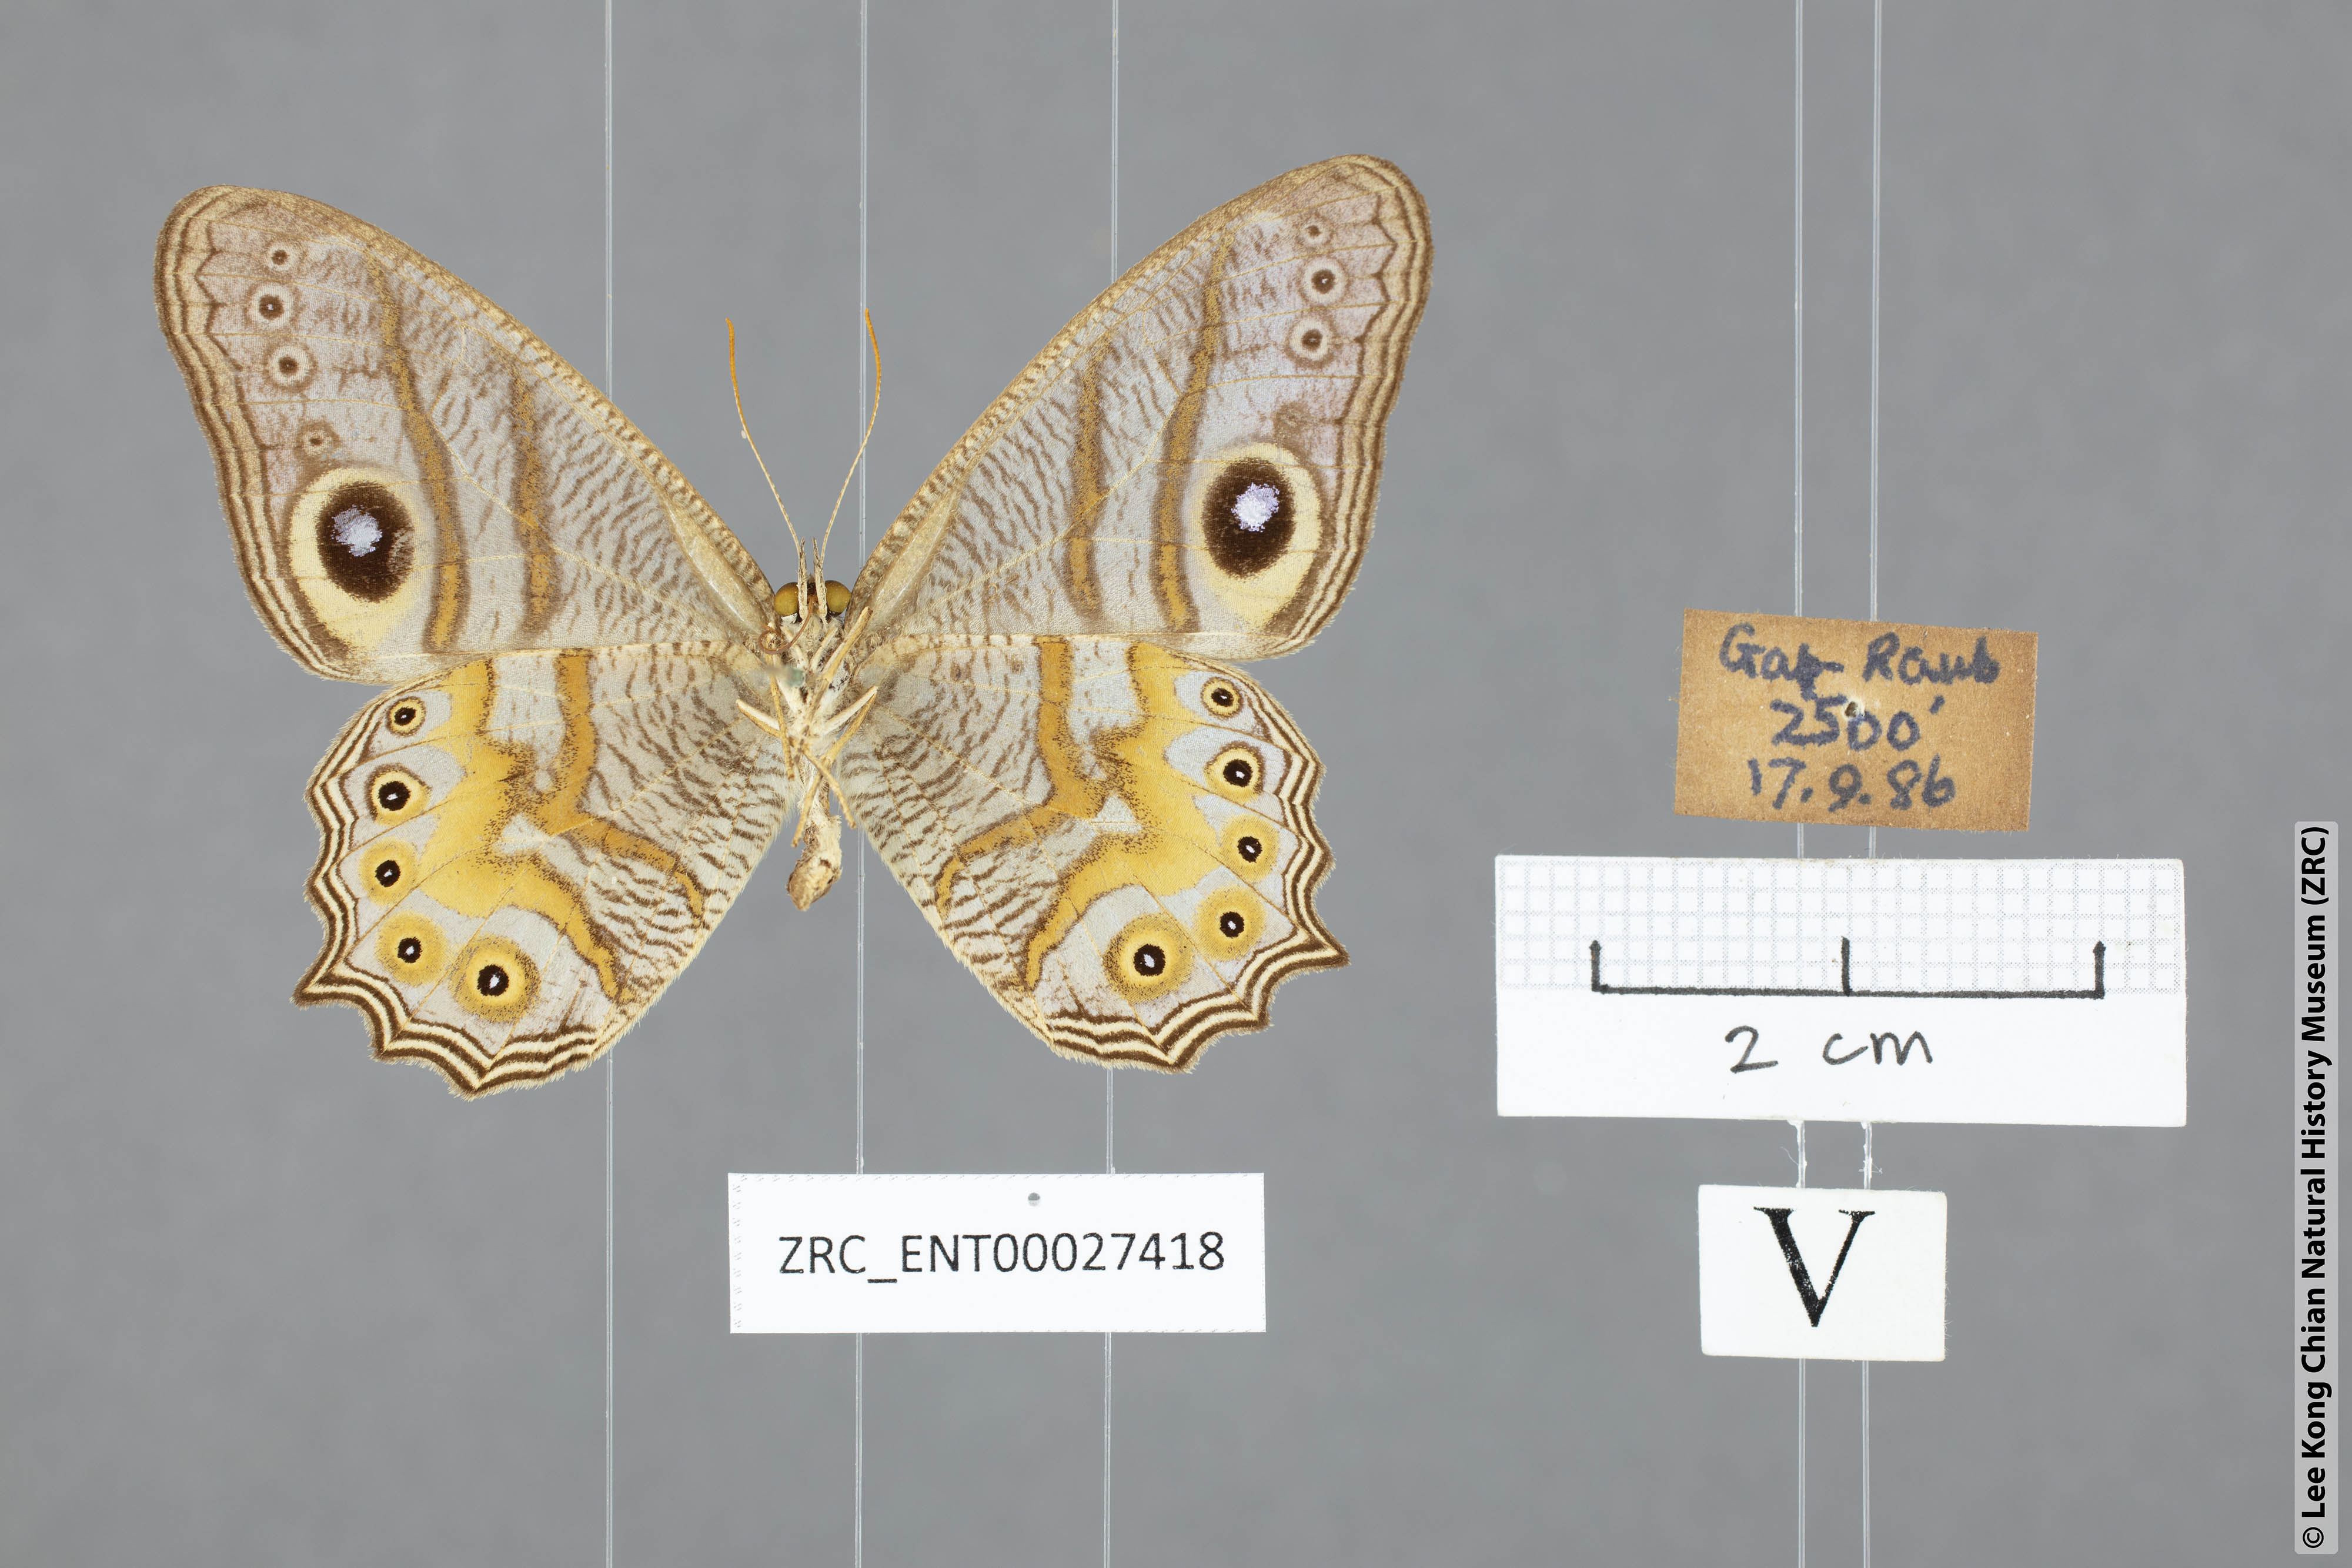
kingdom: Animalia
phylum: Arthropoda
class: Insecta
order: Lepidoptera
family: Nymphalidae
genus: Erites
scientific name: Erites angularis
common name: Angled cyclops
